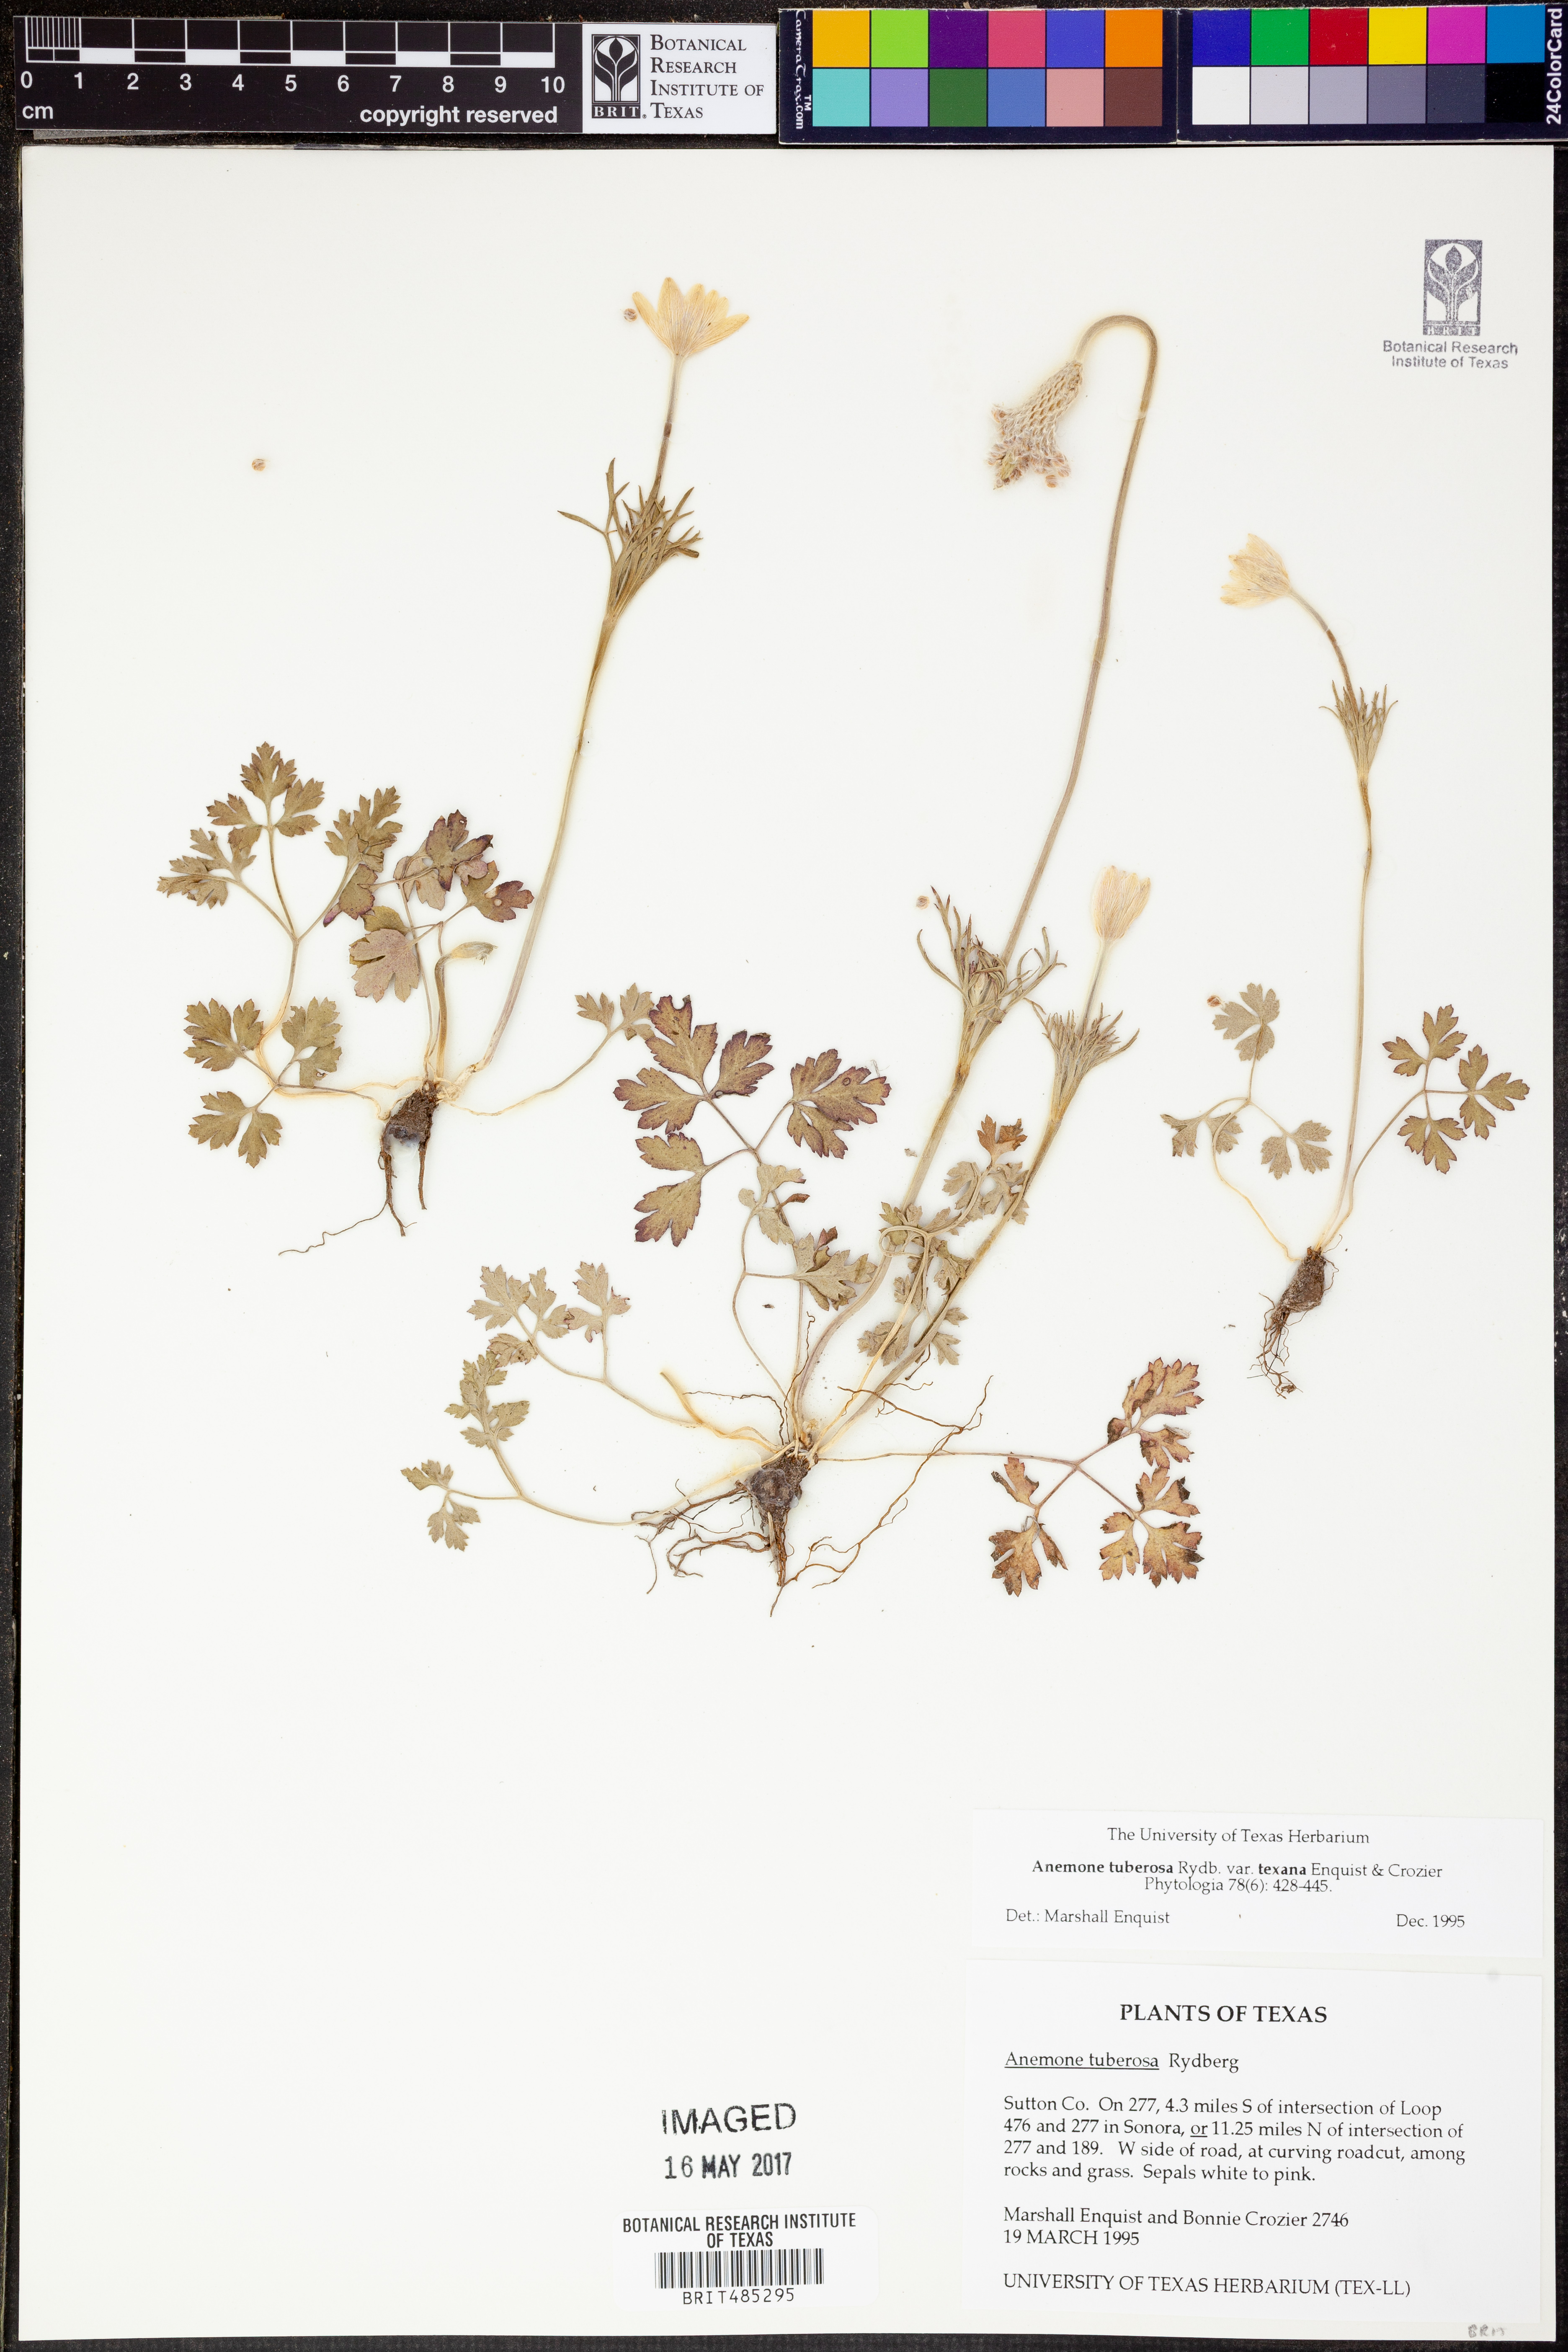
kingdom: Plantae
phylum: Tracheophyta
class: Magnoliopsida
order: Ranunculales
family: Ranunculaceae
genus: Anemone
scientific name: Anemone tuberosa
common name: Desert anemone
